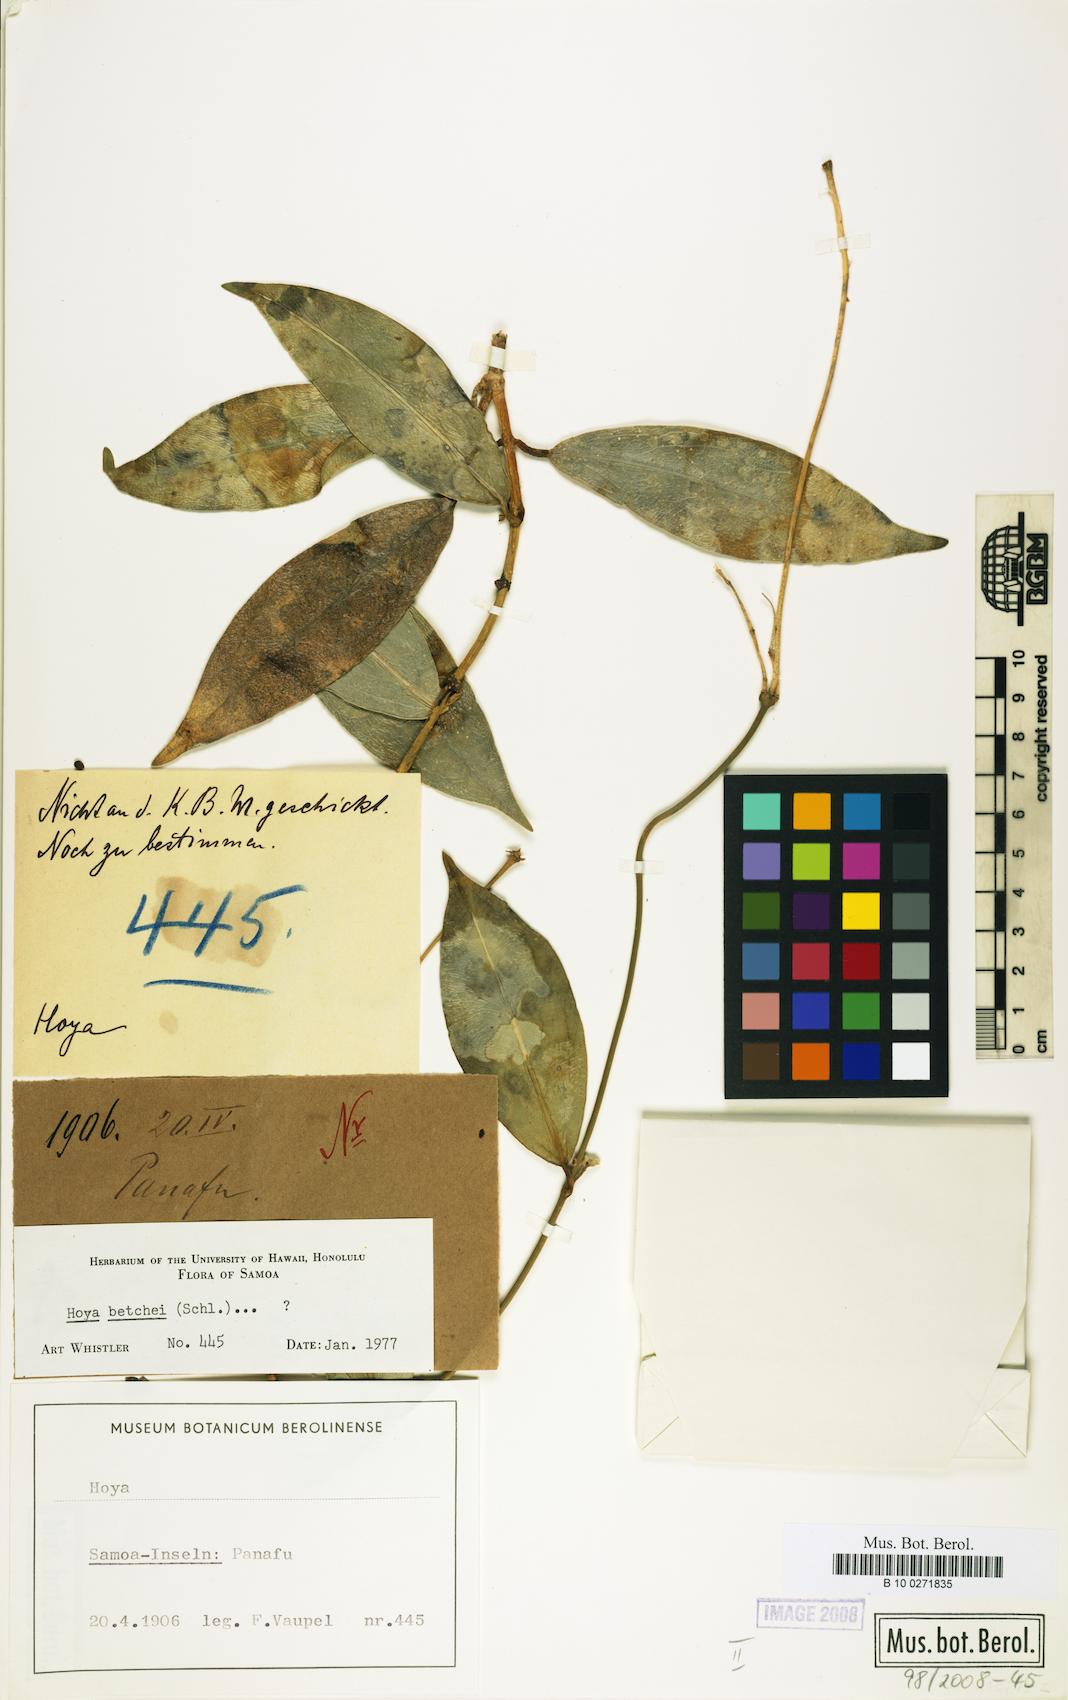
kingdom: Plantae
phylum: Tracheophyta
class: Magnoliopsida
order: Gentianales
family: Apocynaceae
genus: Hoya
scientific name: Hoya betchei
